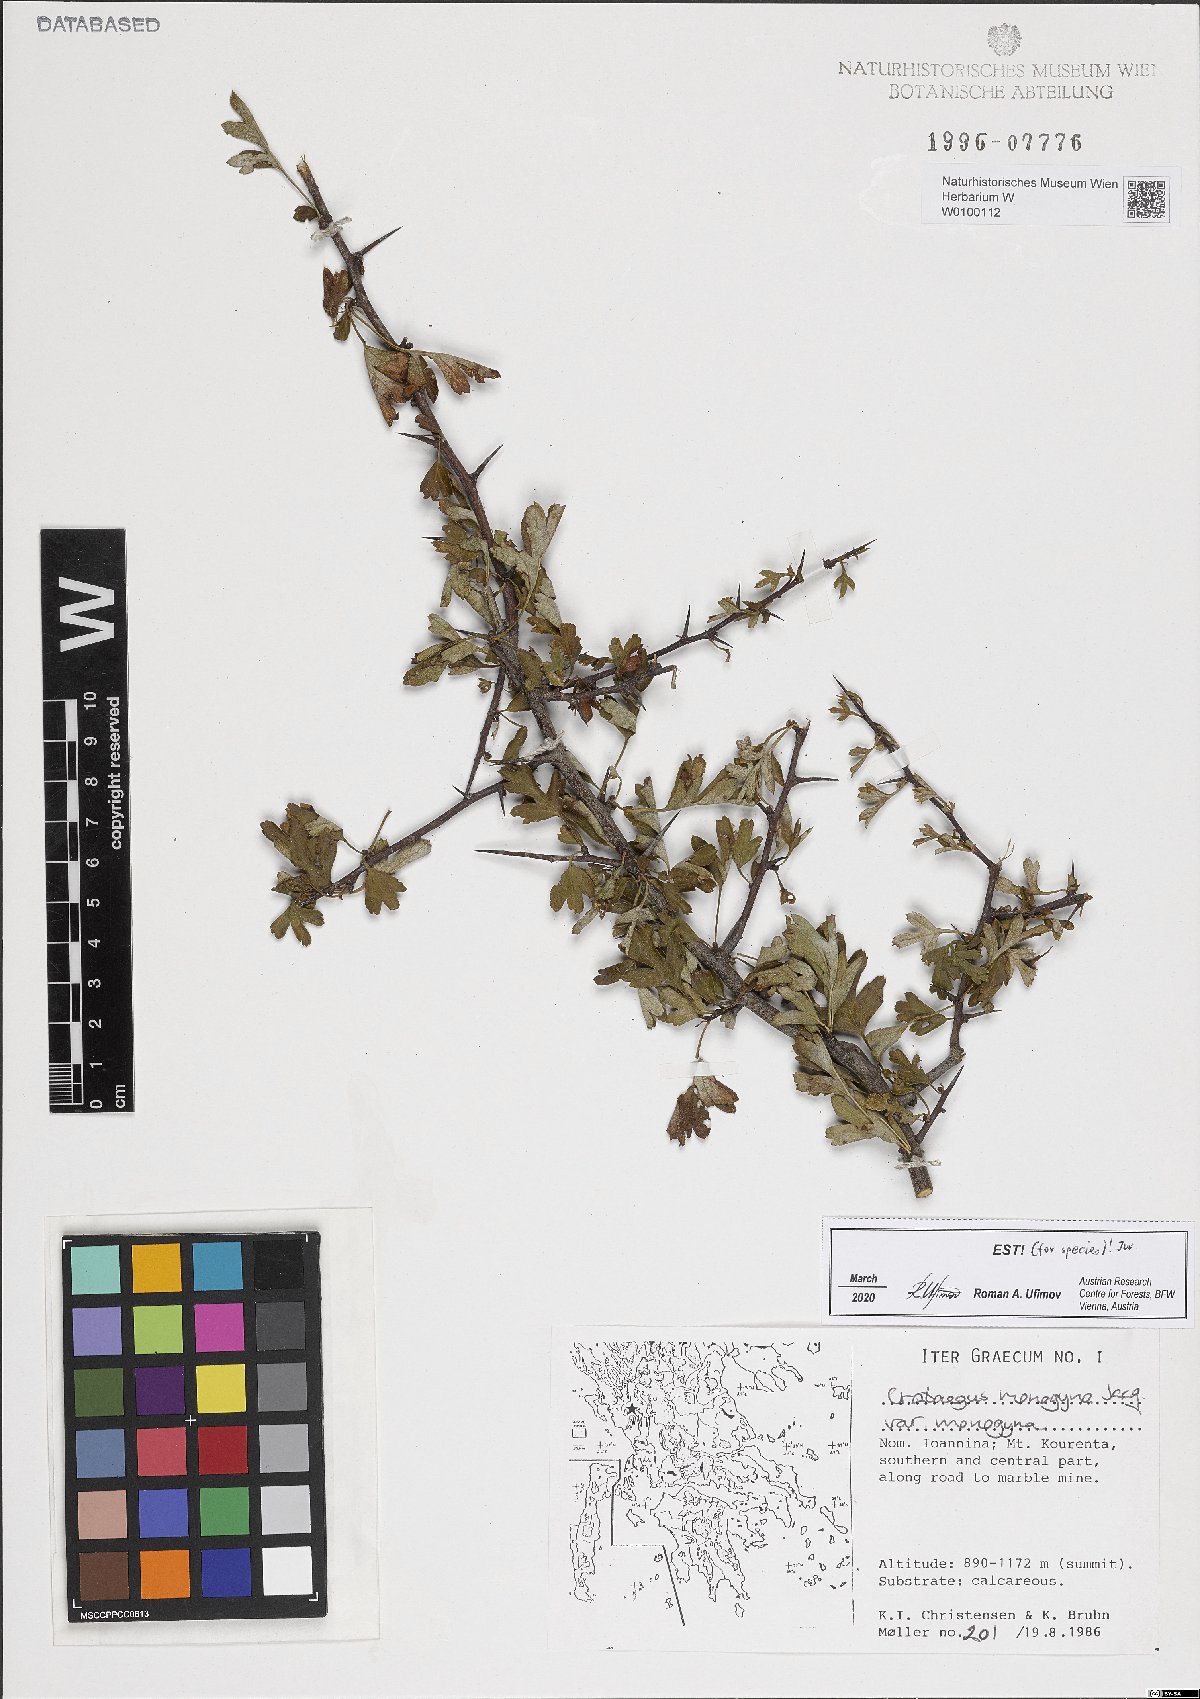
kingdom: Plantae
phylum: Tracheophyta
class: Magnoliopsida
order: Rosales
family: Rosaceae
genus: Crataegus
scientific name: Crataegus monogyna
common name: Hawthorn
